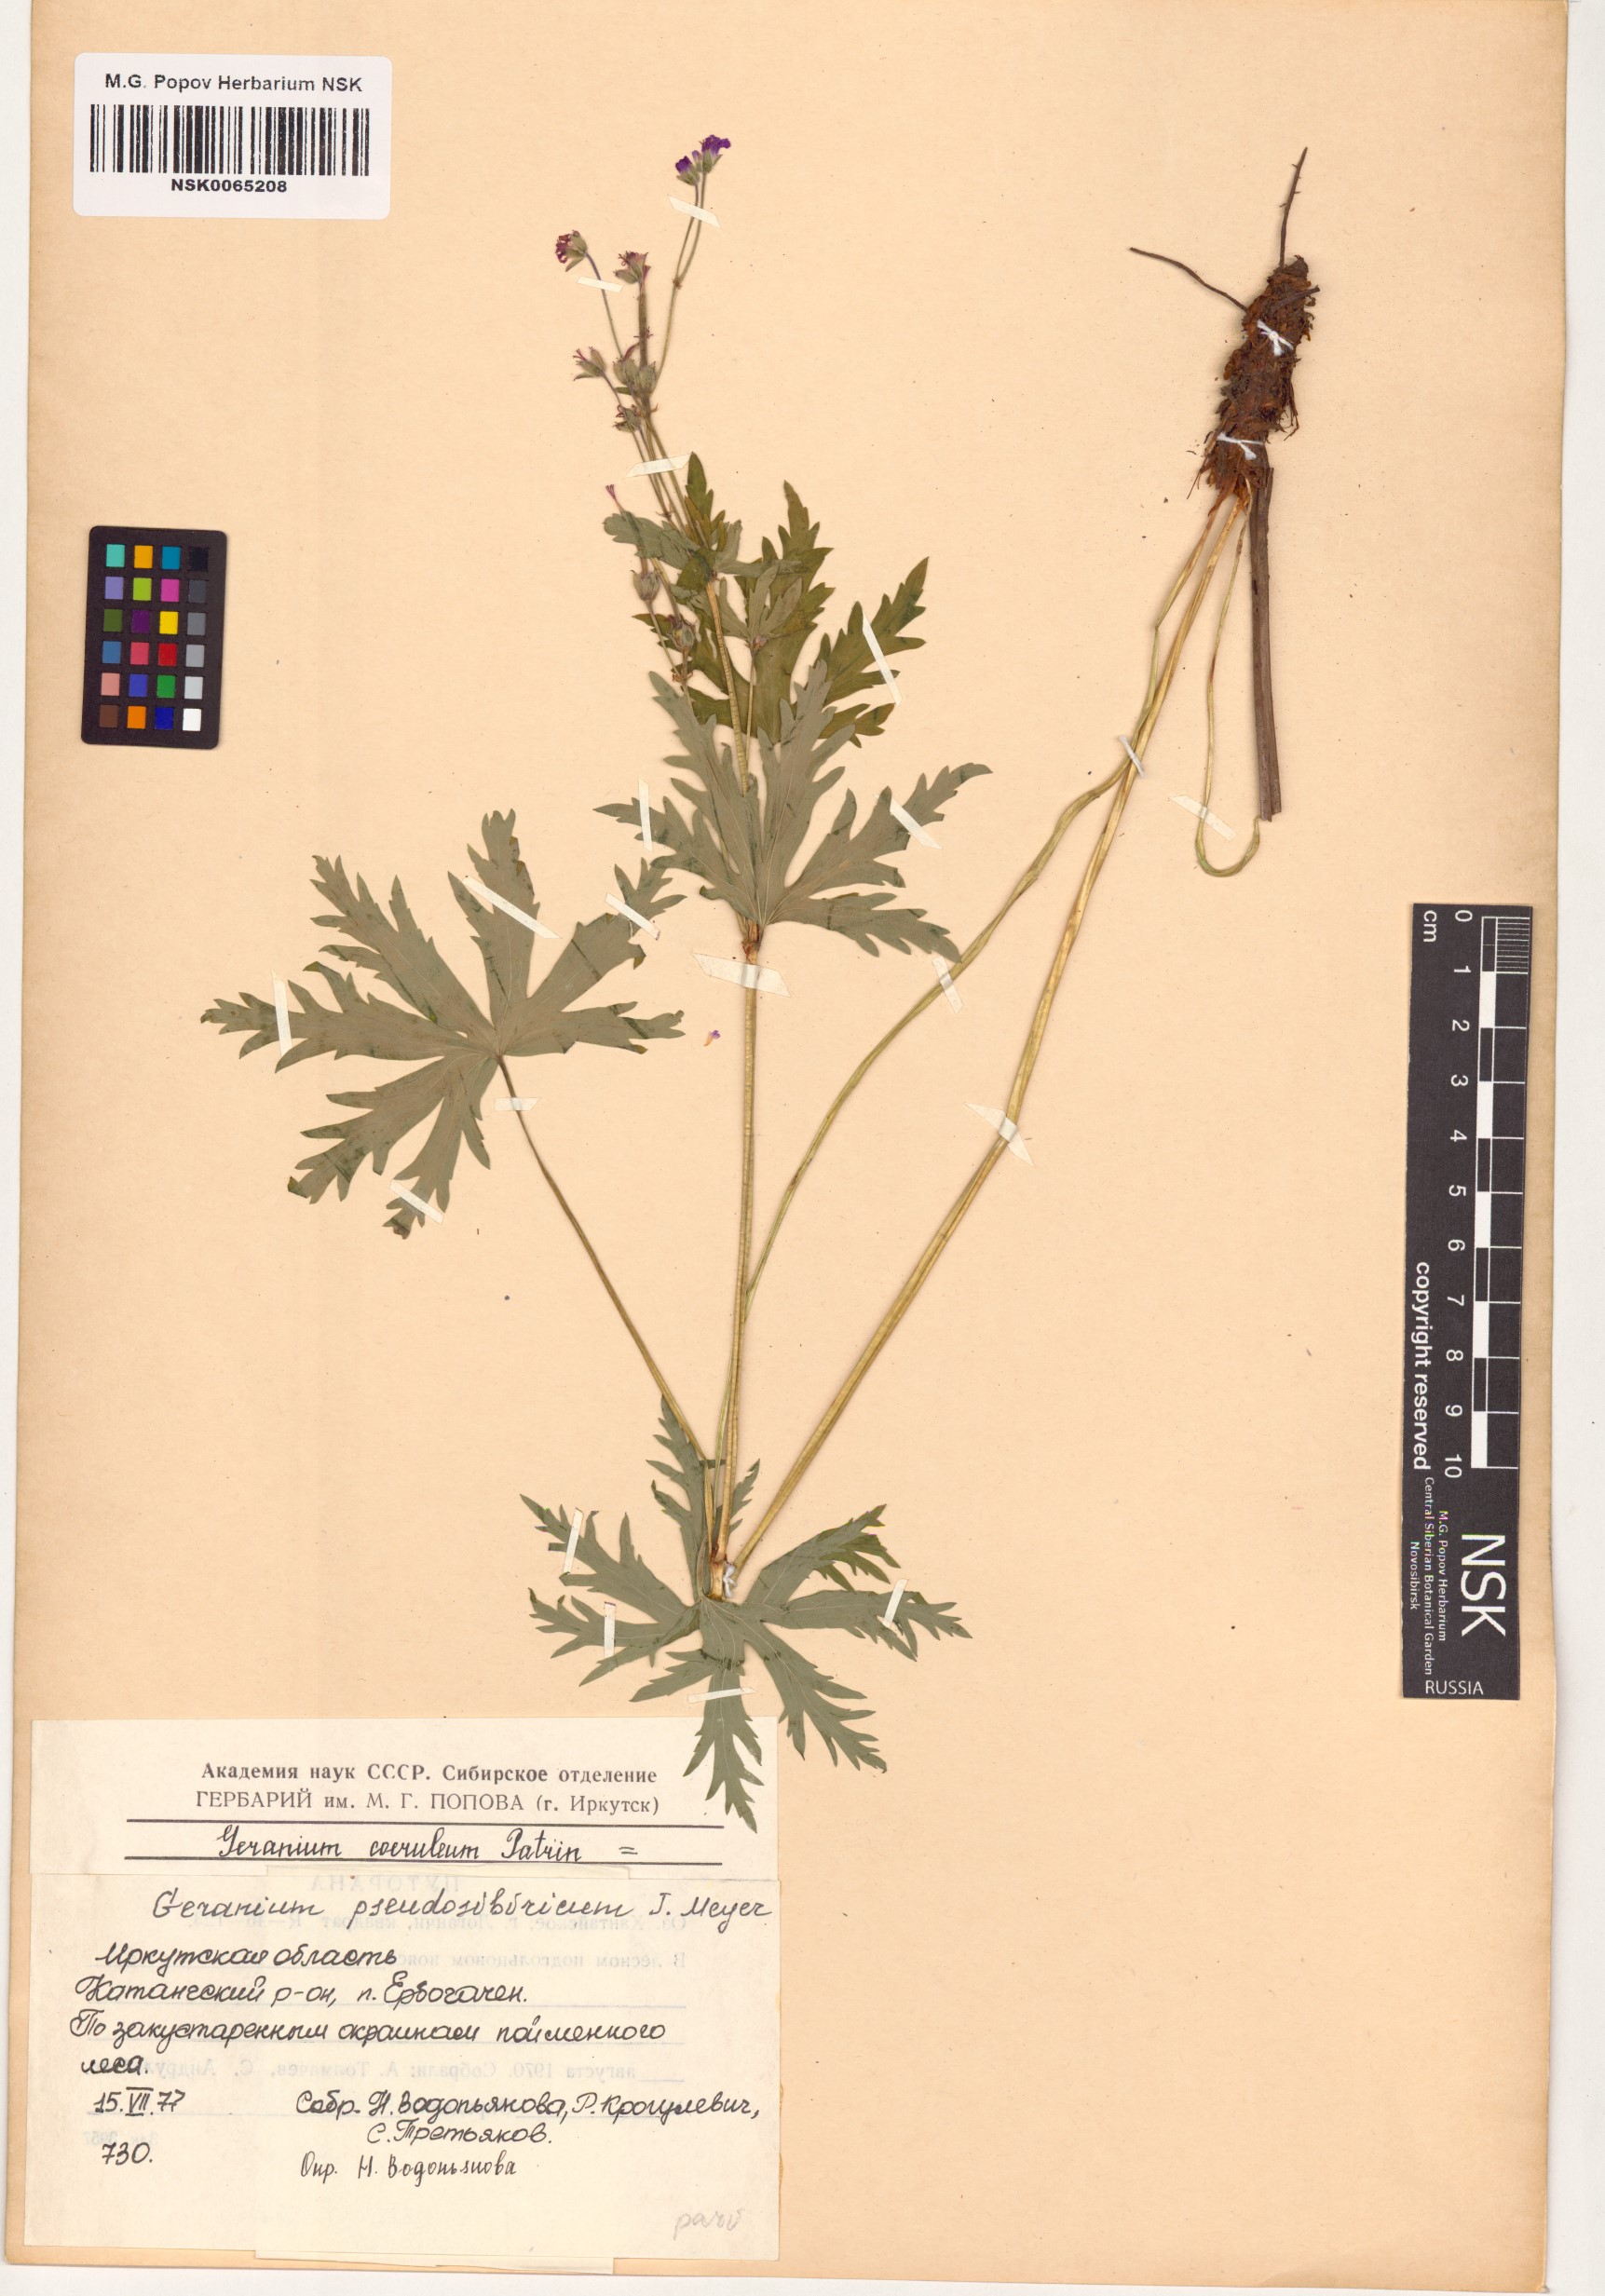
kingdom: Plantae
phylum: Tracheophyta
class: Magnoliopsida
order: Geraniales
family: Geraniaceae
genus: Geranium
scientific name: Geranium pseudosibiricum
